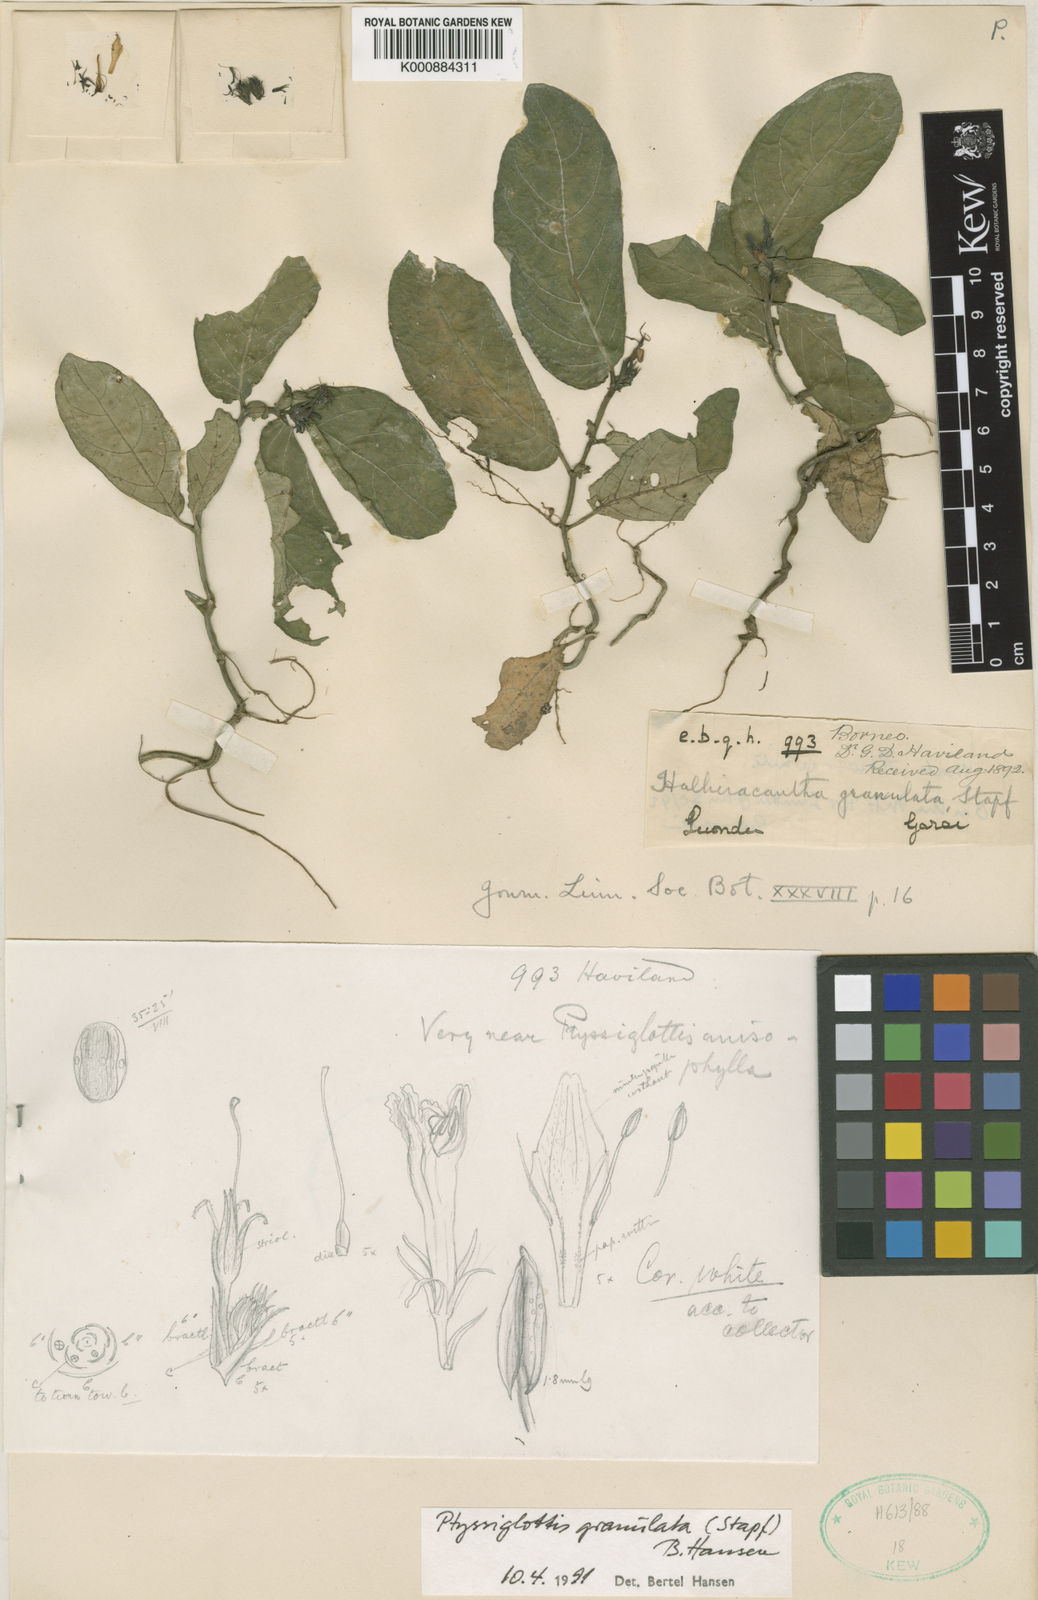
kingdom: Plantae
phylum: Tracheophyta
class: Magnoliopsida
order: Lamiales
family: Acanthaceae
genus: Ptyssiglottis
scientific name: Ptyssiglottis granulata
